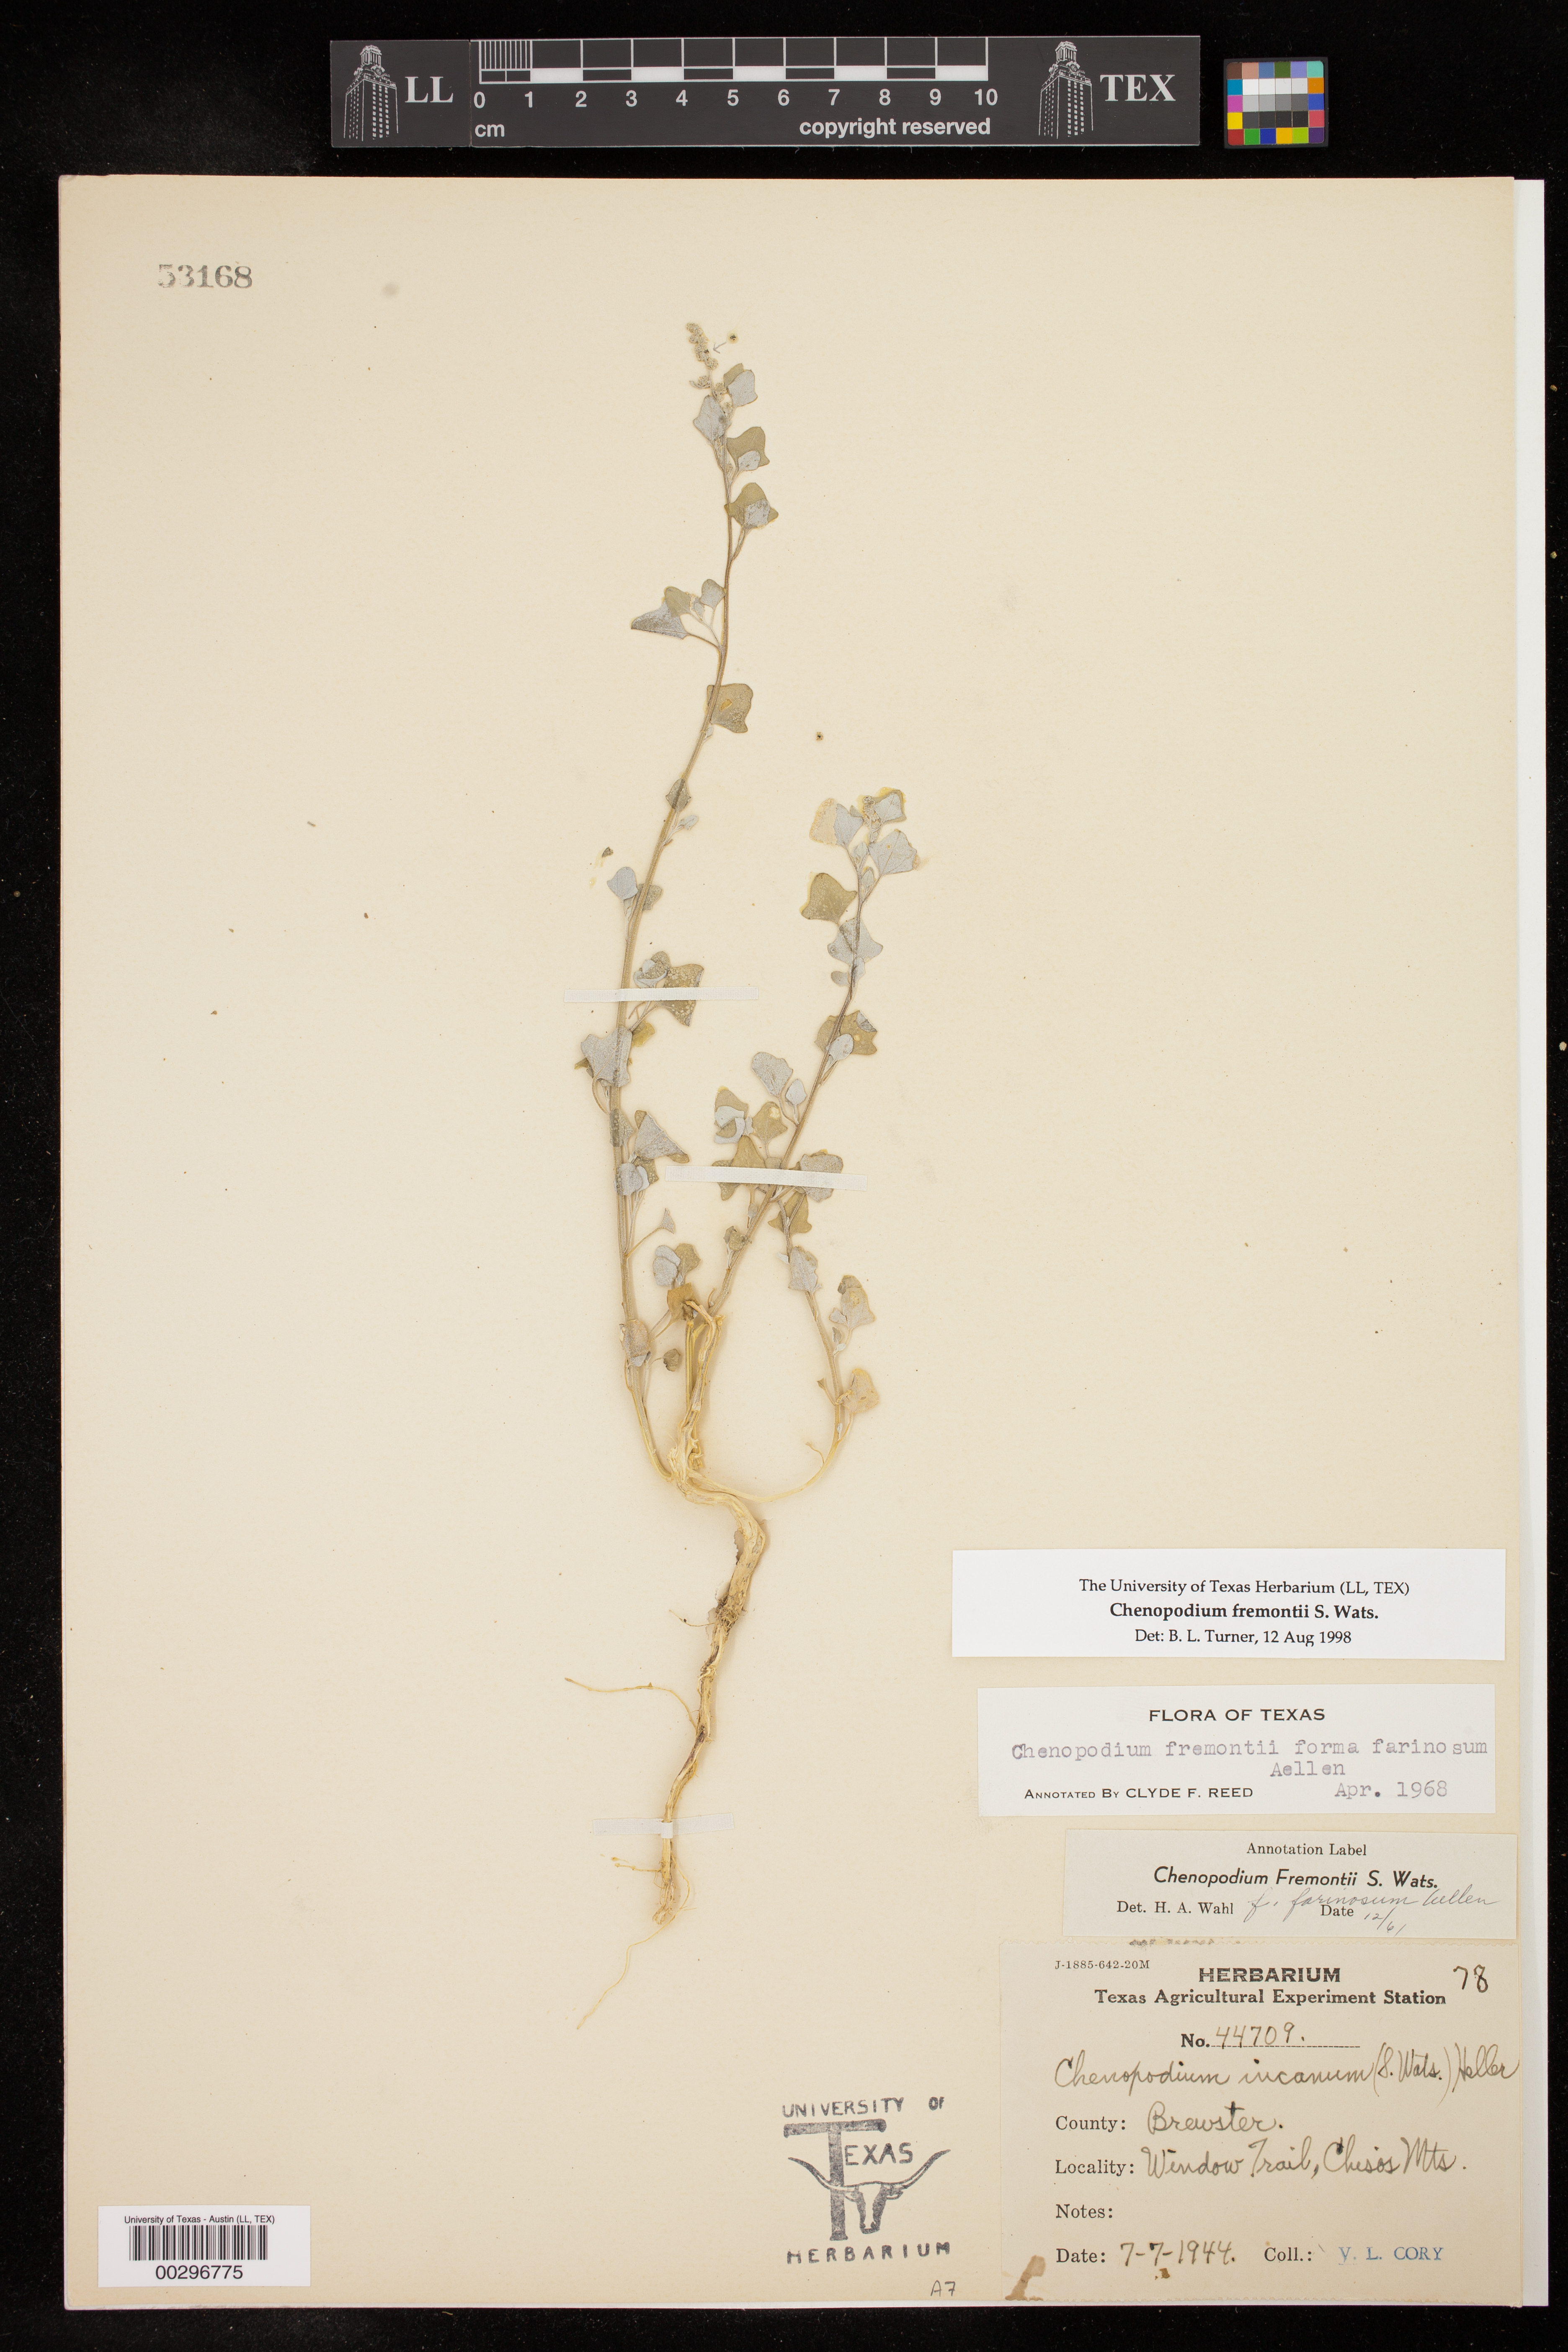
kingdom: Plantae
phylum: Tracheophyta
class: Magnoliopsida
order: Caryophyllales
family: Amaranthaceae
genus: Chenopodium
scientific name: Chenopodium fremontii
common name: Fremont's goosefoot
